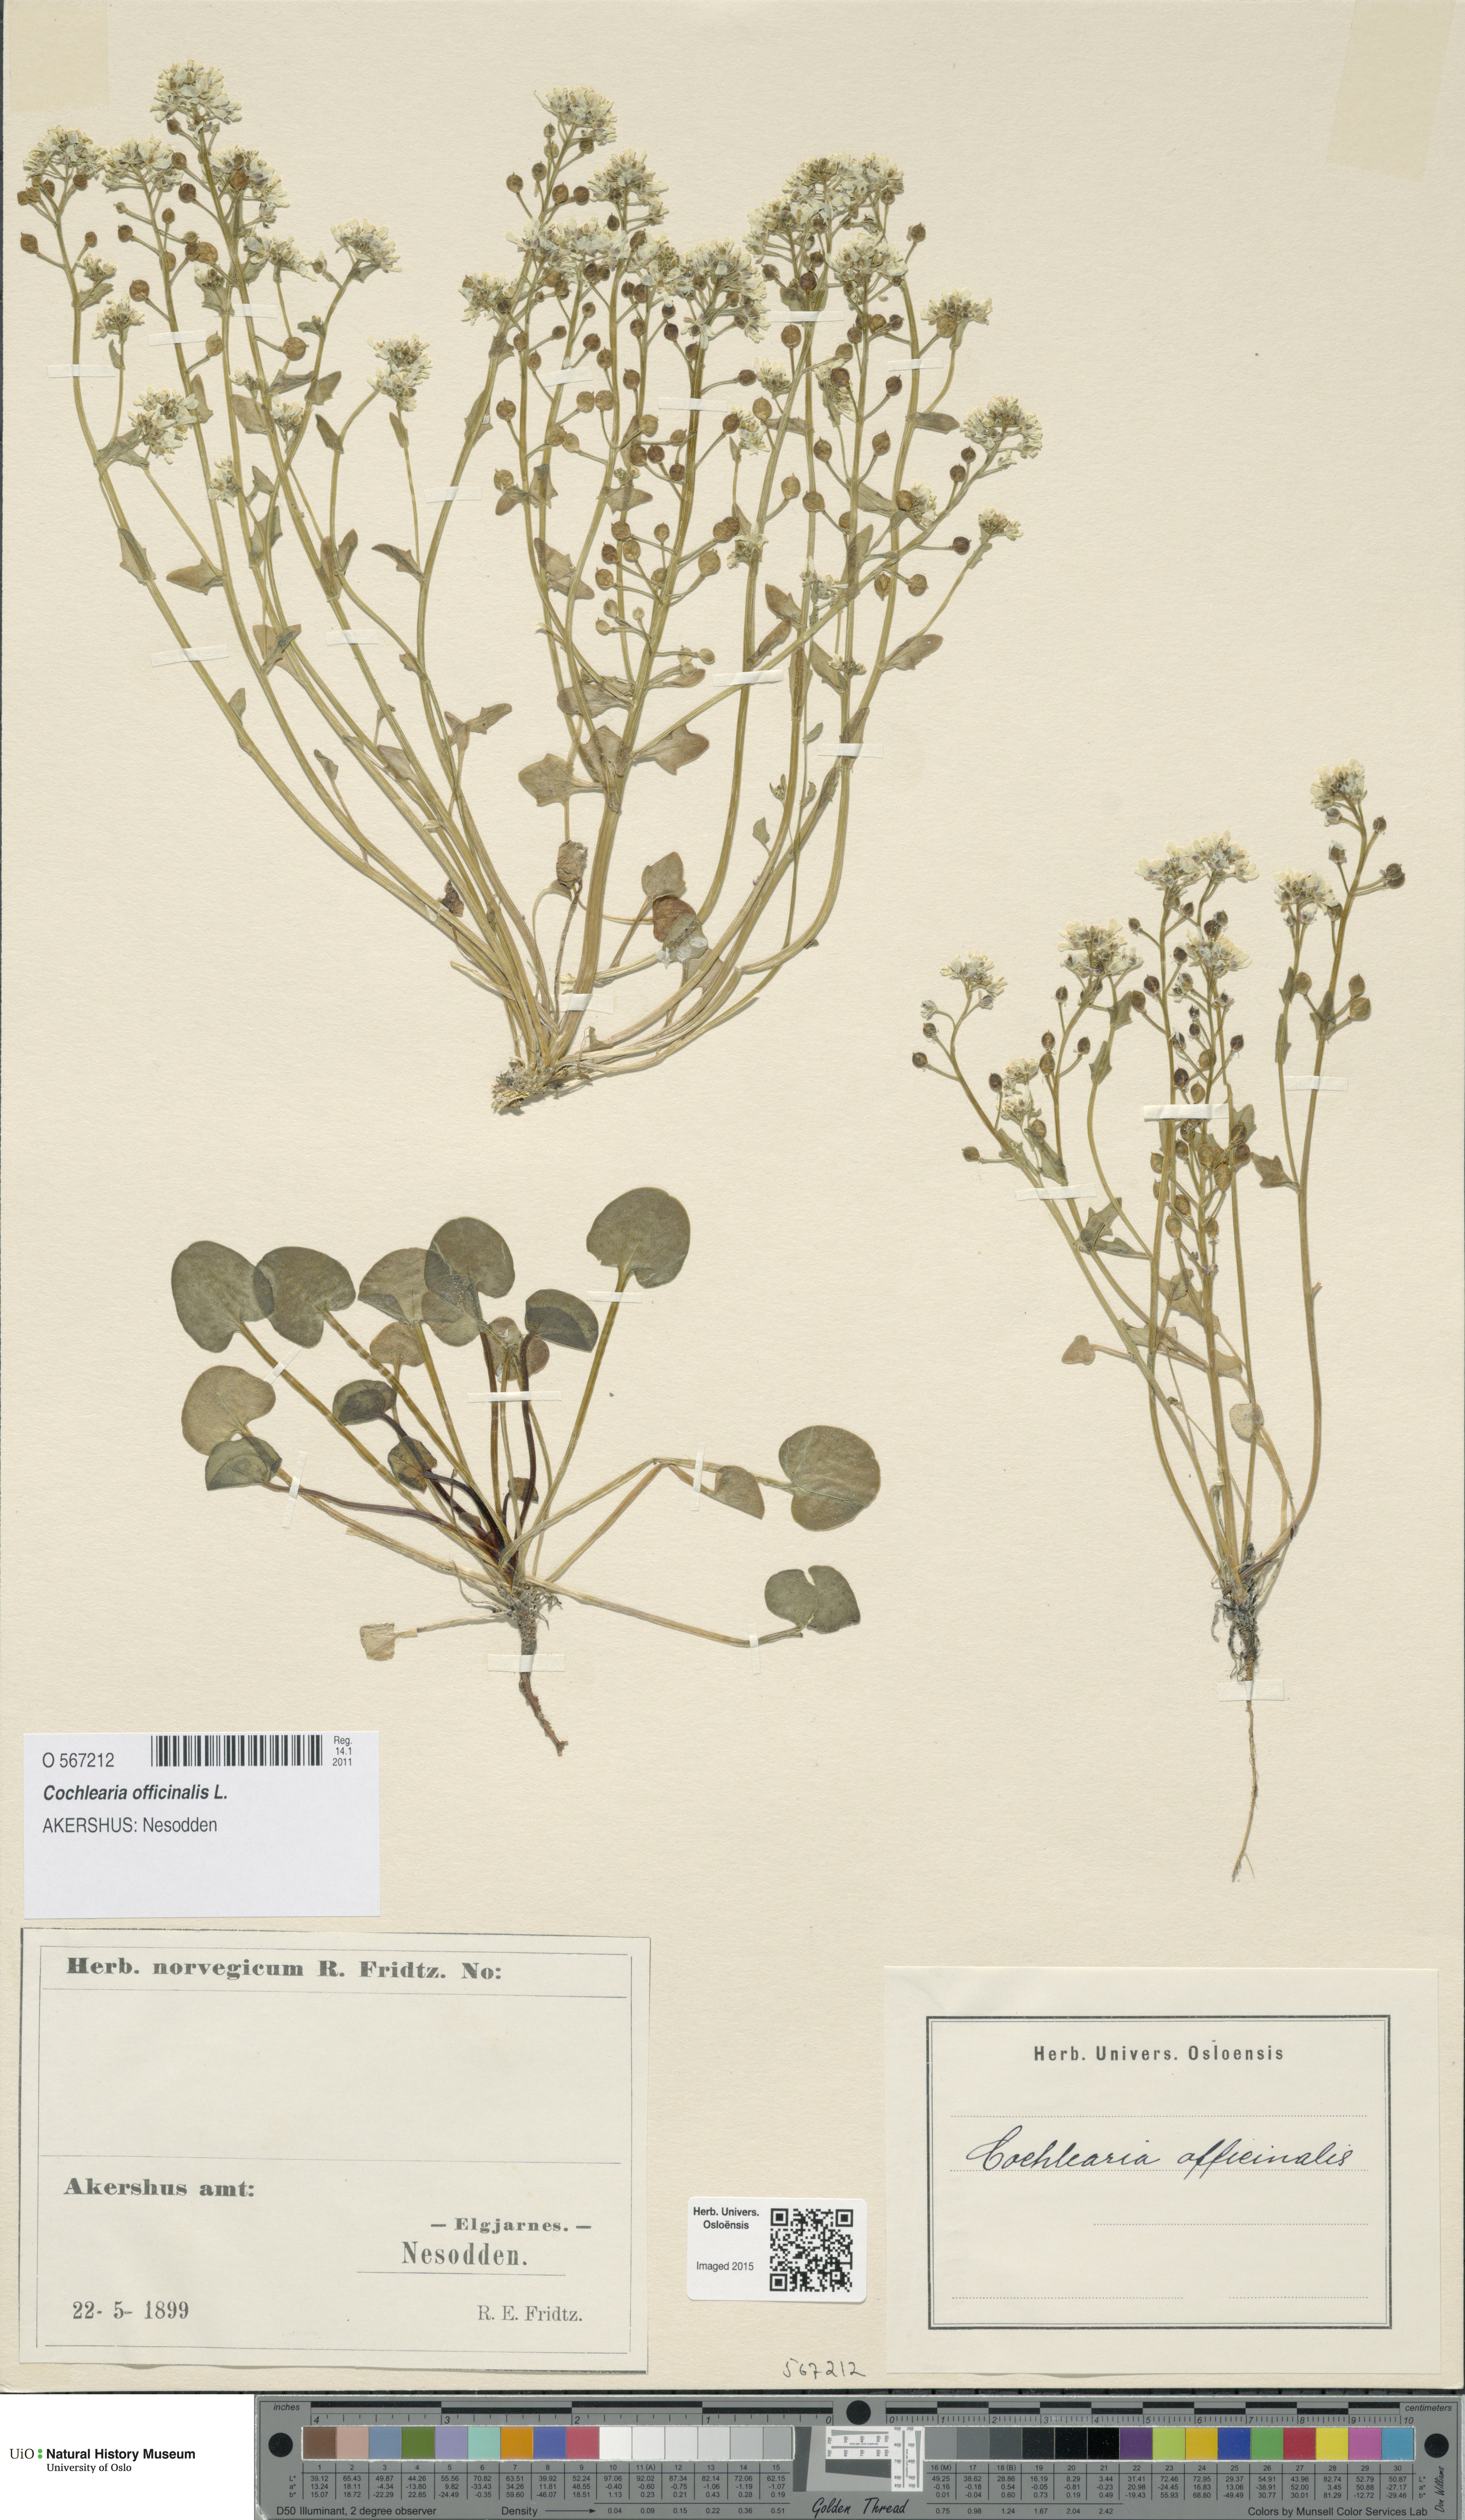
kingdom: Plantae
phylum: Tracheophyta
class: Magnoliopsida
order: Brassicales
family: Brassicaceae
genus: Cochlearia
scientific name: Cochlearia officinalis
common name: Scurvy-grass
